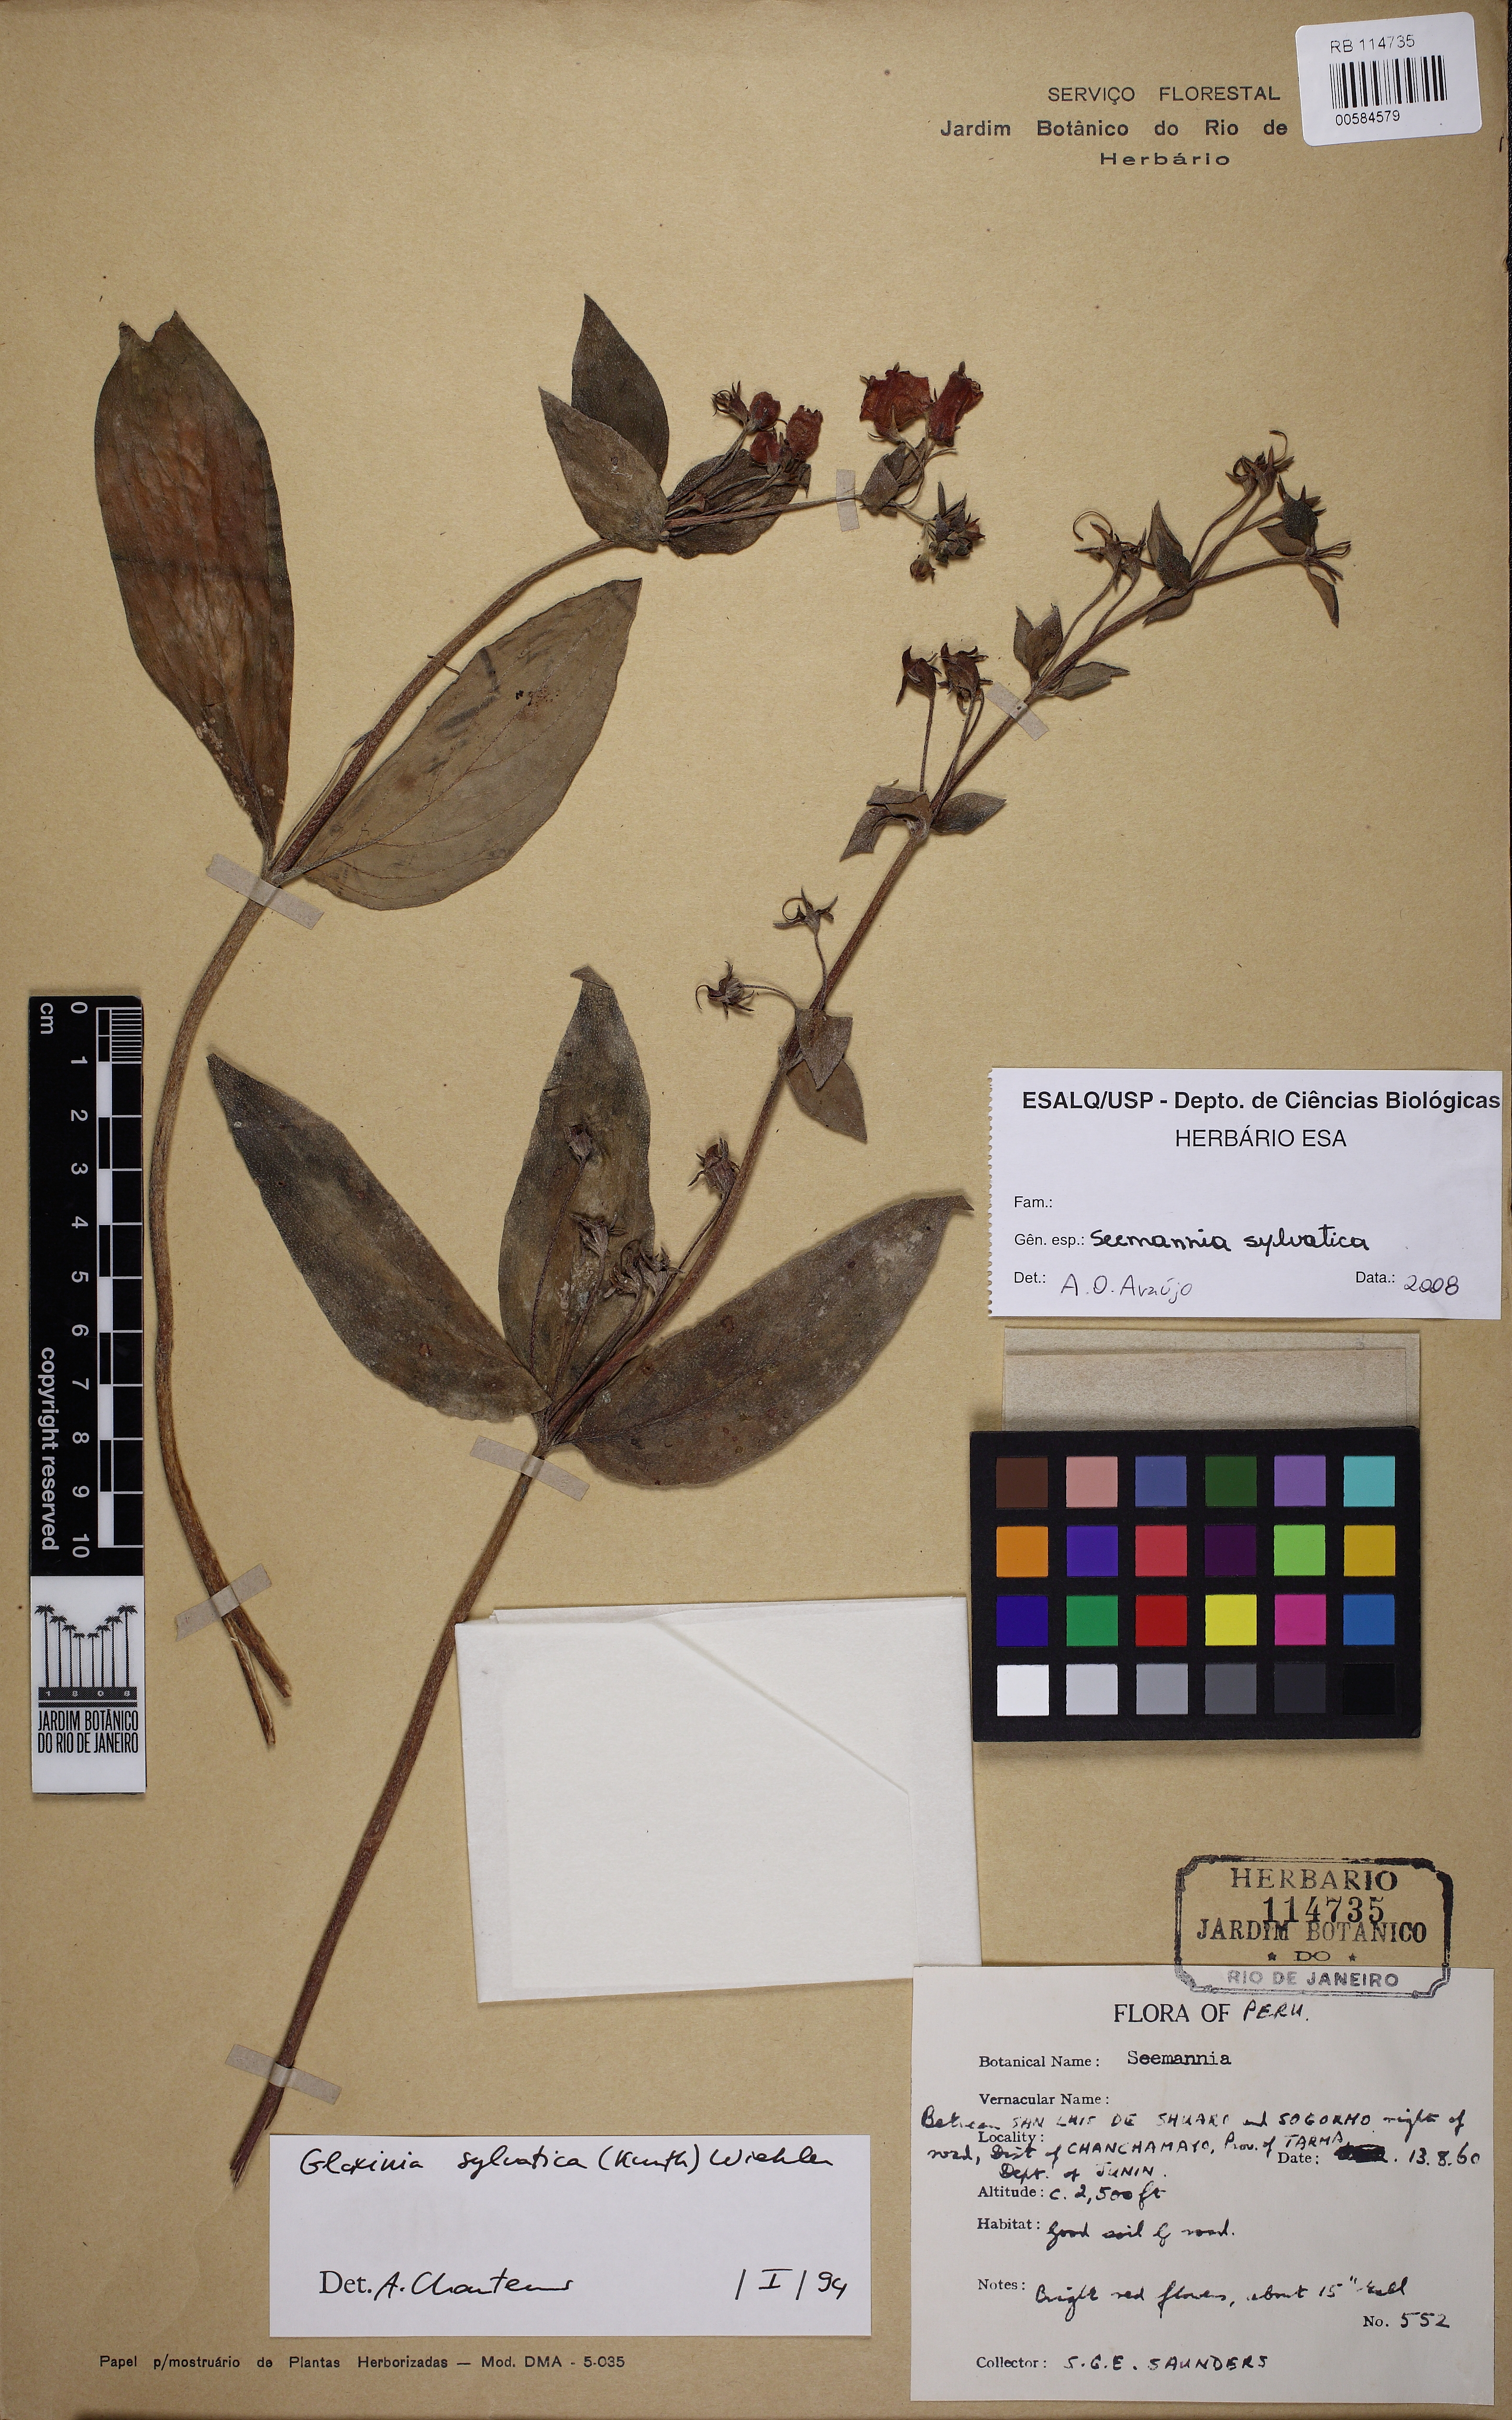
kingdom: Plantae
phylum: Tracheophyta
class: Magnoliopsida
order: Lamiales
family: Gesneriaceae
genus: Seemannia
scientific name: Seemannia sylvatica
